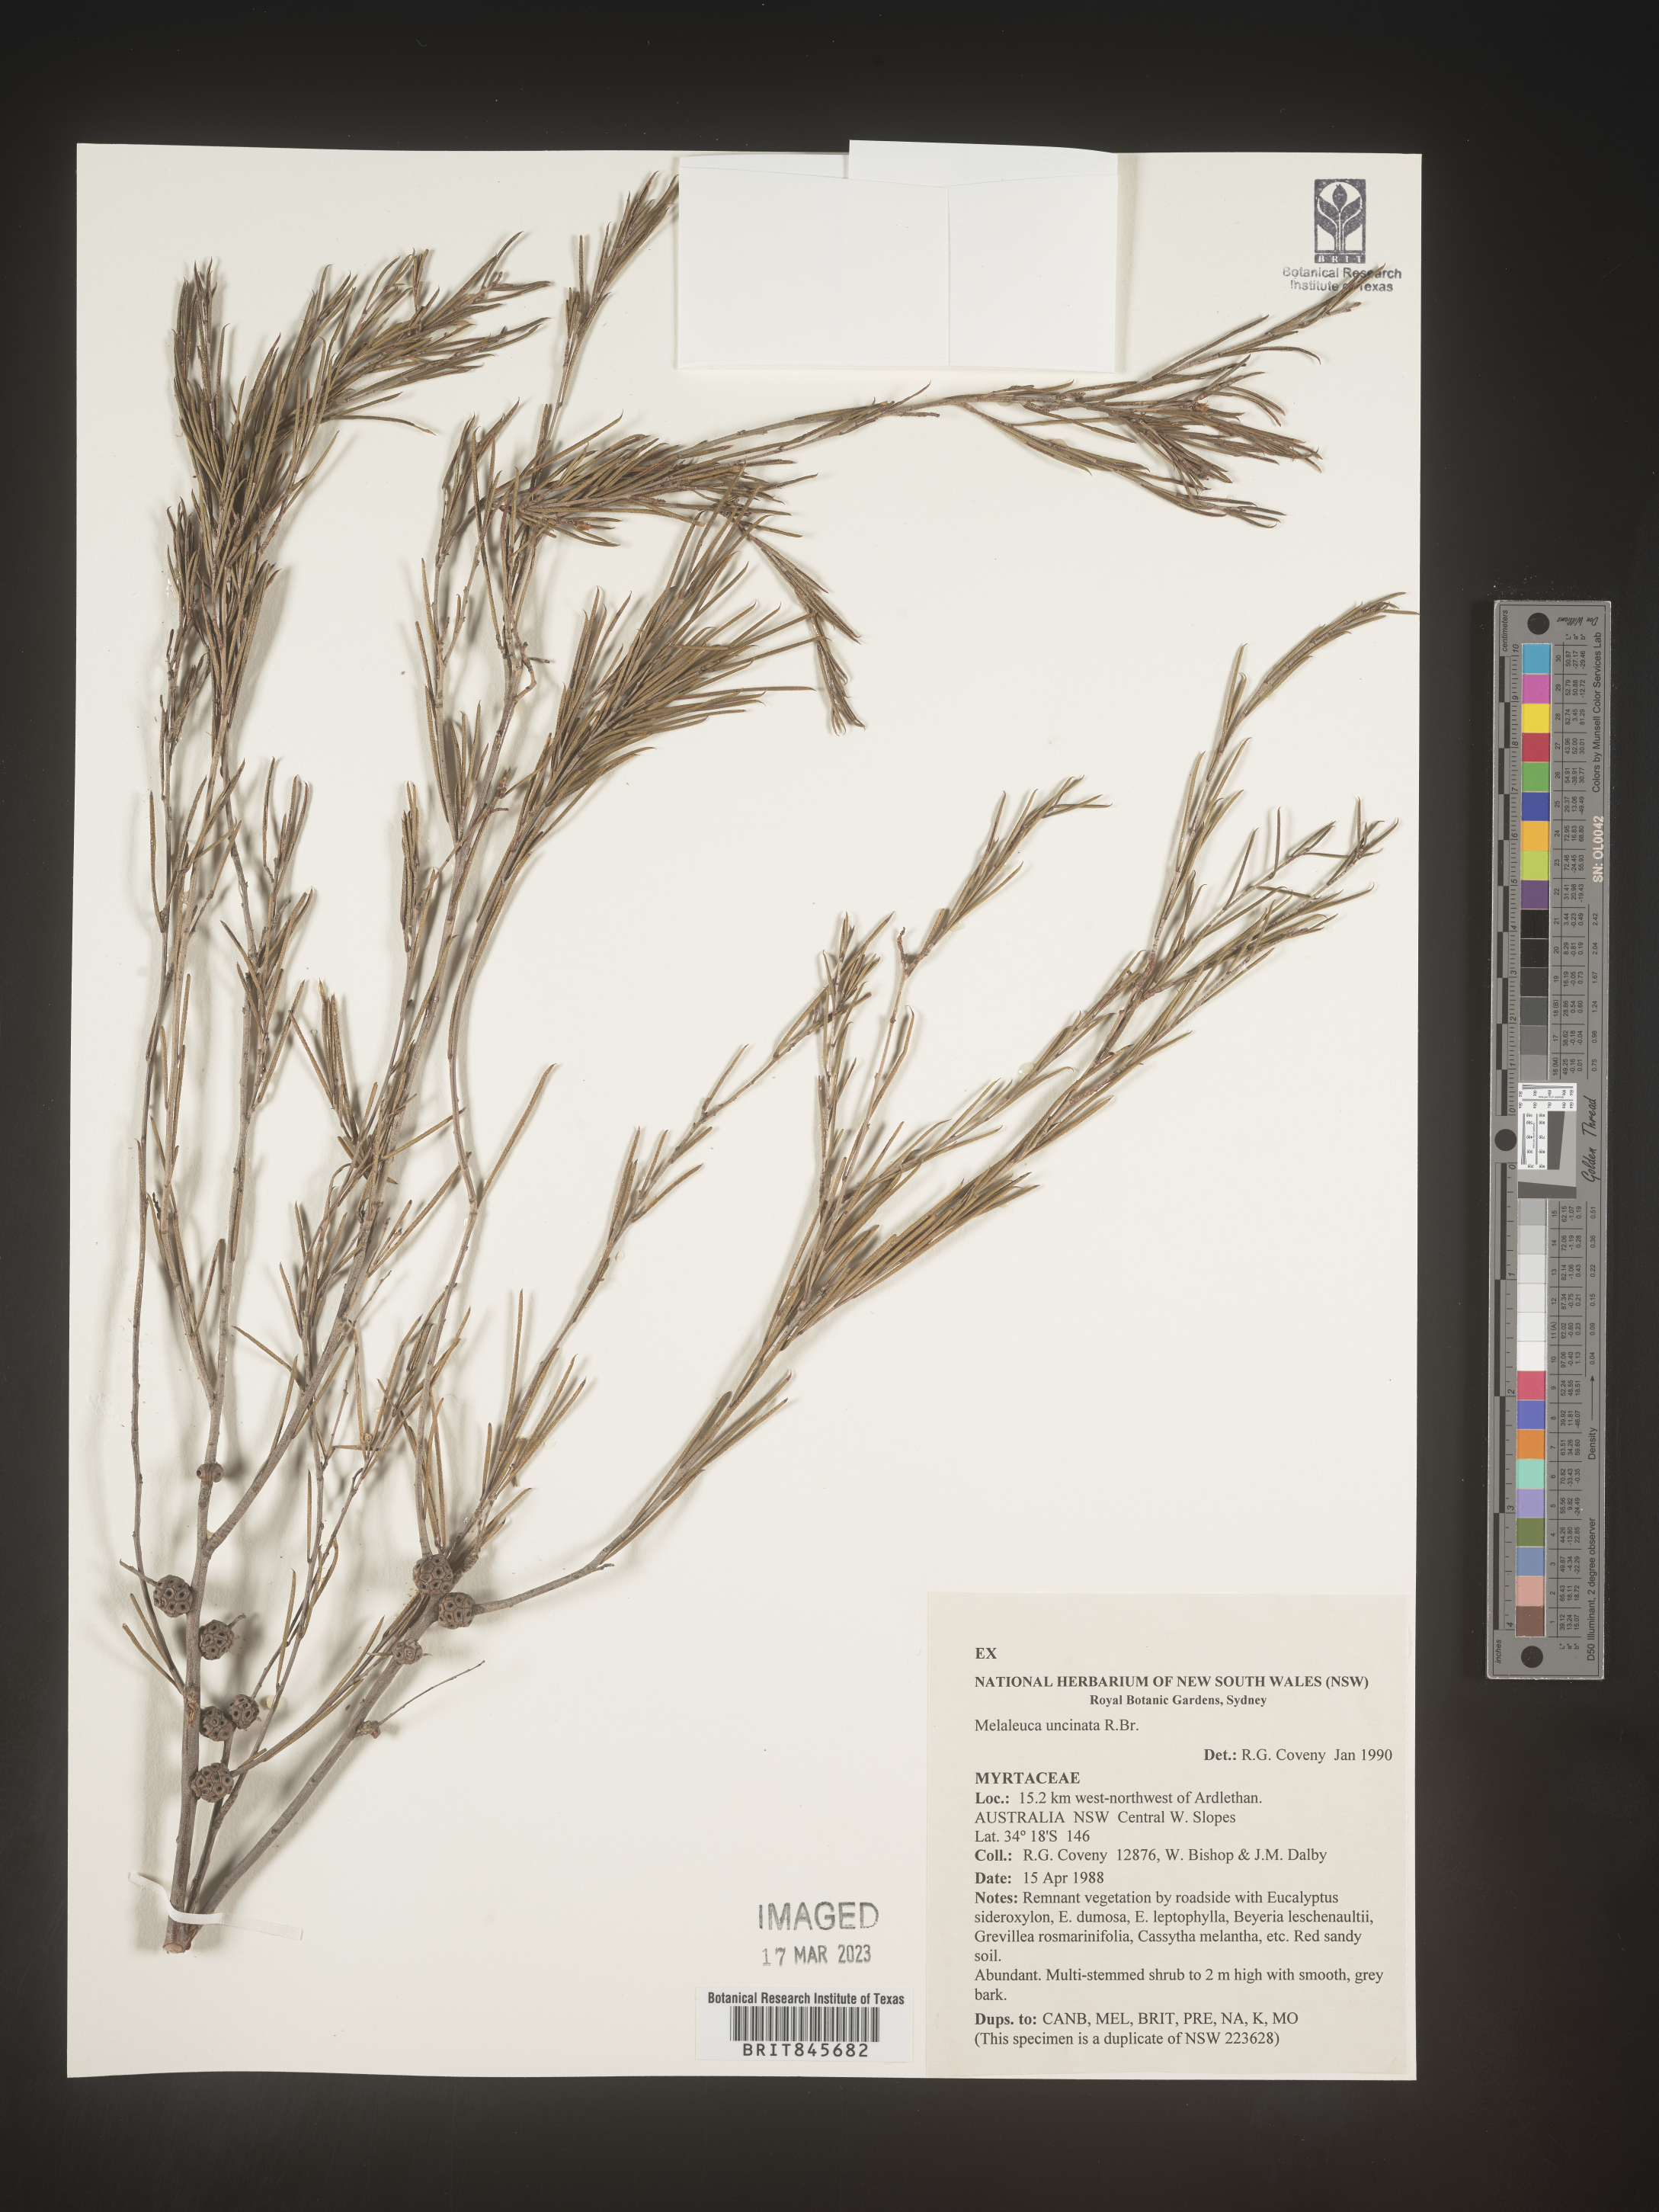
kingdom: Plantae
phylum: Tracheophyta
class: Magnoliopsida
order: Myrtales
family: Myrtaceae
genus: Melaleuca
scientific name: Melaleuca
